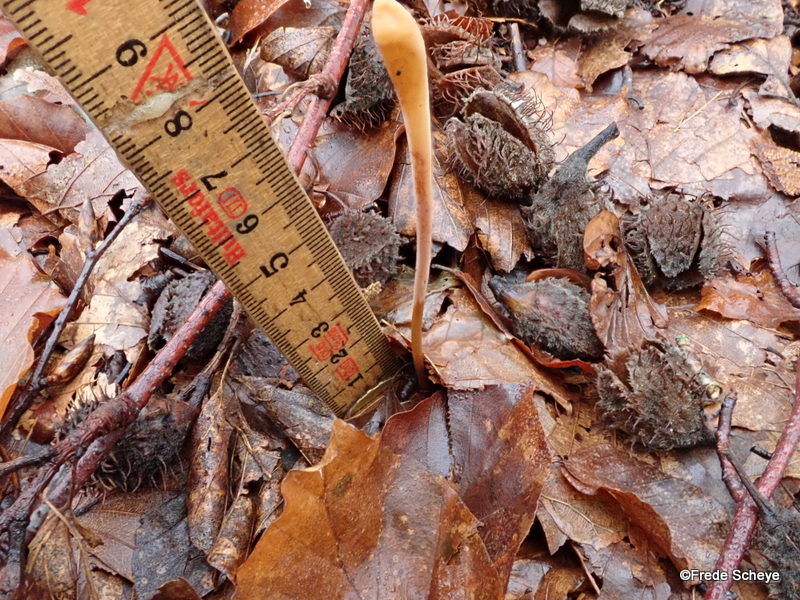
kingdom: Fungi
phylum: Basidiomycota
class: Agaricomycetes
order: Agaricales
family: Typhulaceae
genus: Typhula
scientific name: Typhula fistulosa
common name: pibet rørkølle
